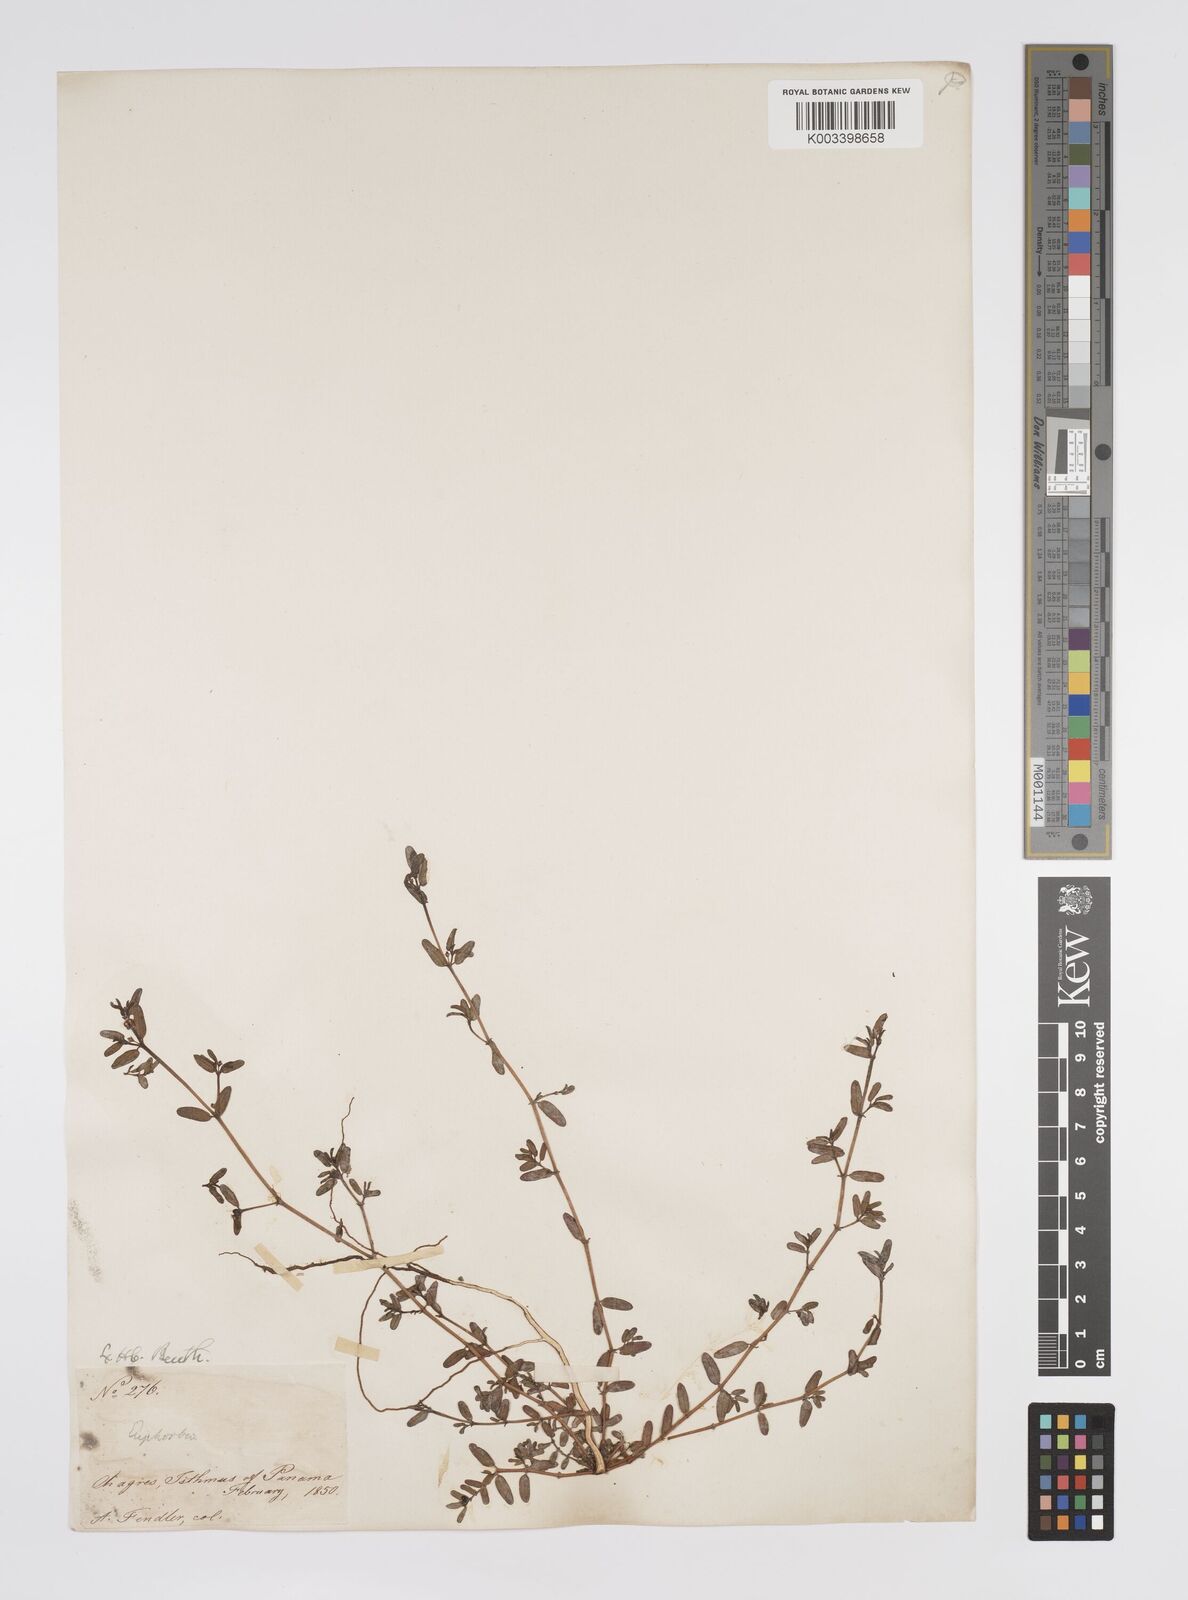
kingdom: Plantae
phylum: Tracheophyta
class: Magnoliopsida
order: Malpighiales
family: Euphorbiaceae
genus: Euphorbia
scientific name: Euphorbia
